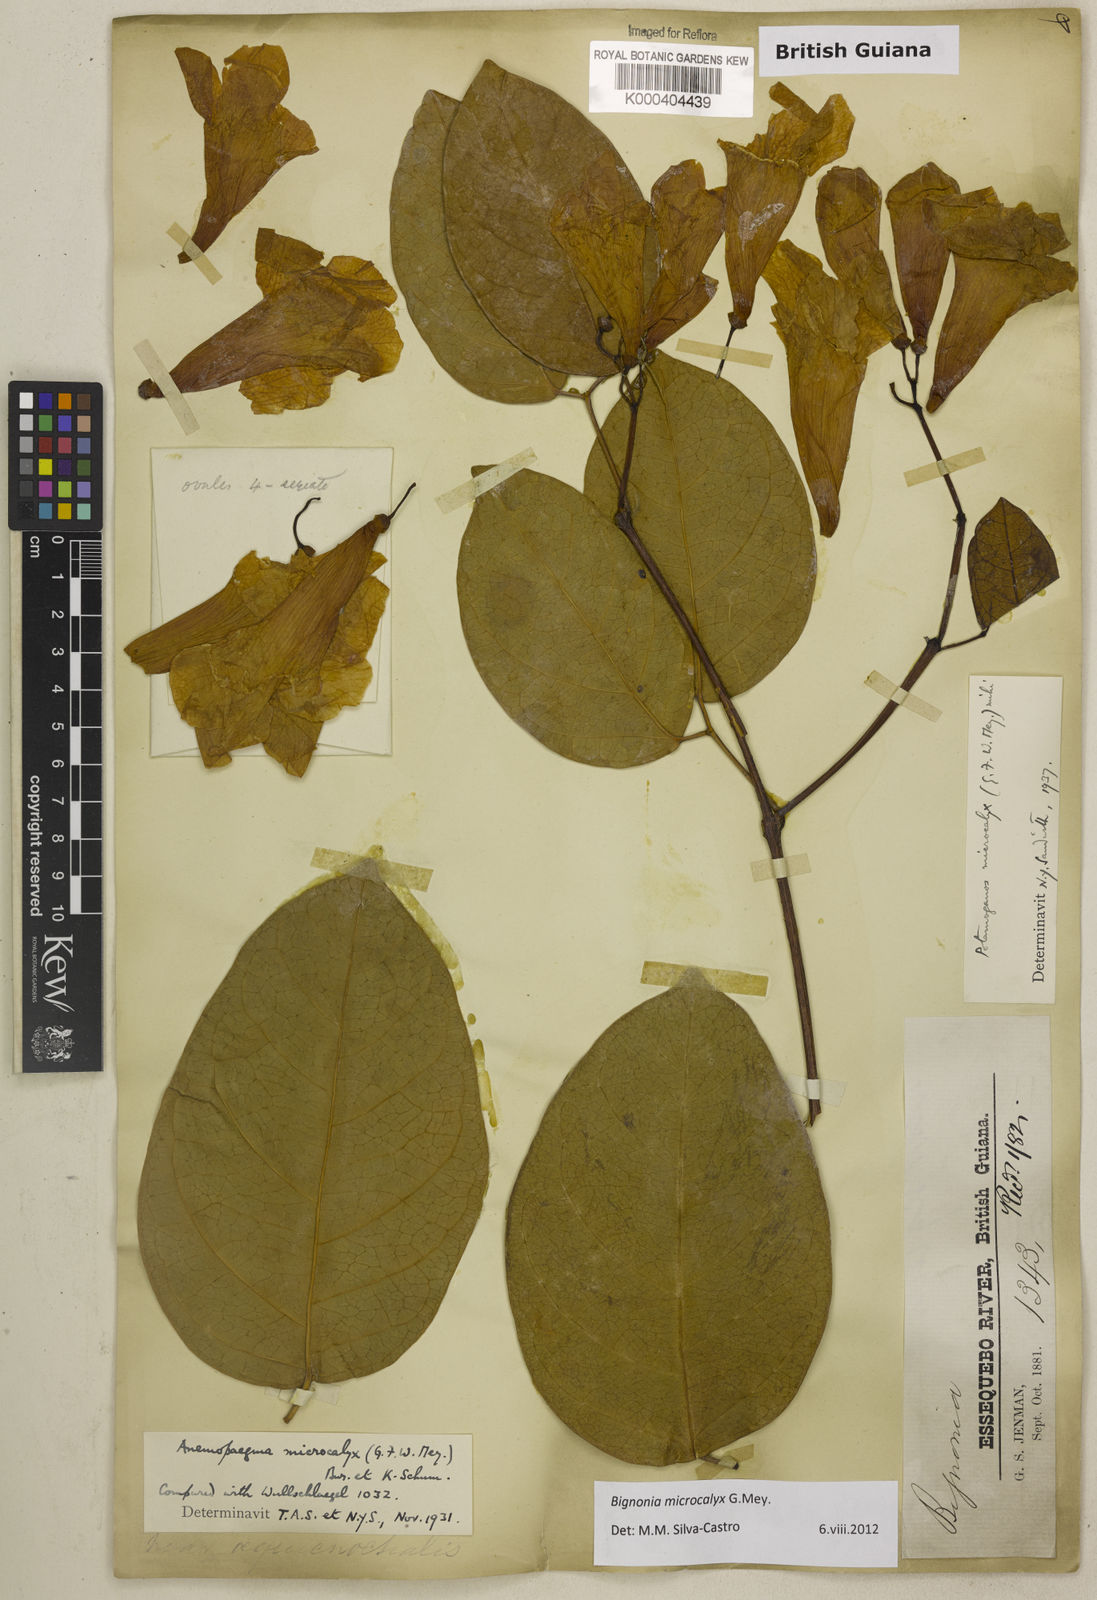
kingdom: Plantae
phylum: Tracheophyta
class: Magnoliopsida
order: Lamiales
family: Bignoniaceae
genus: Bignonia
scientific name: Bignonia microcalyx
